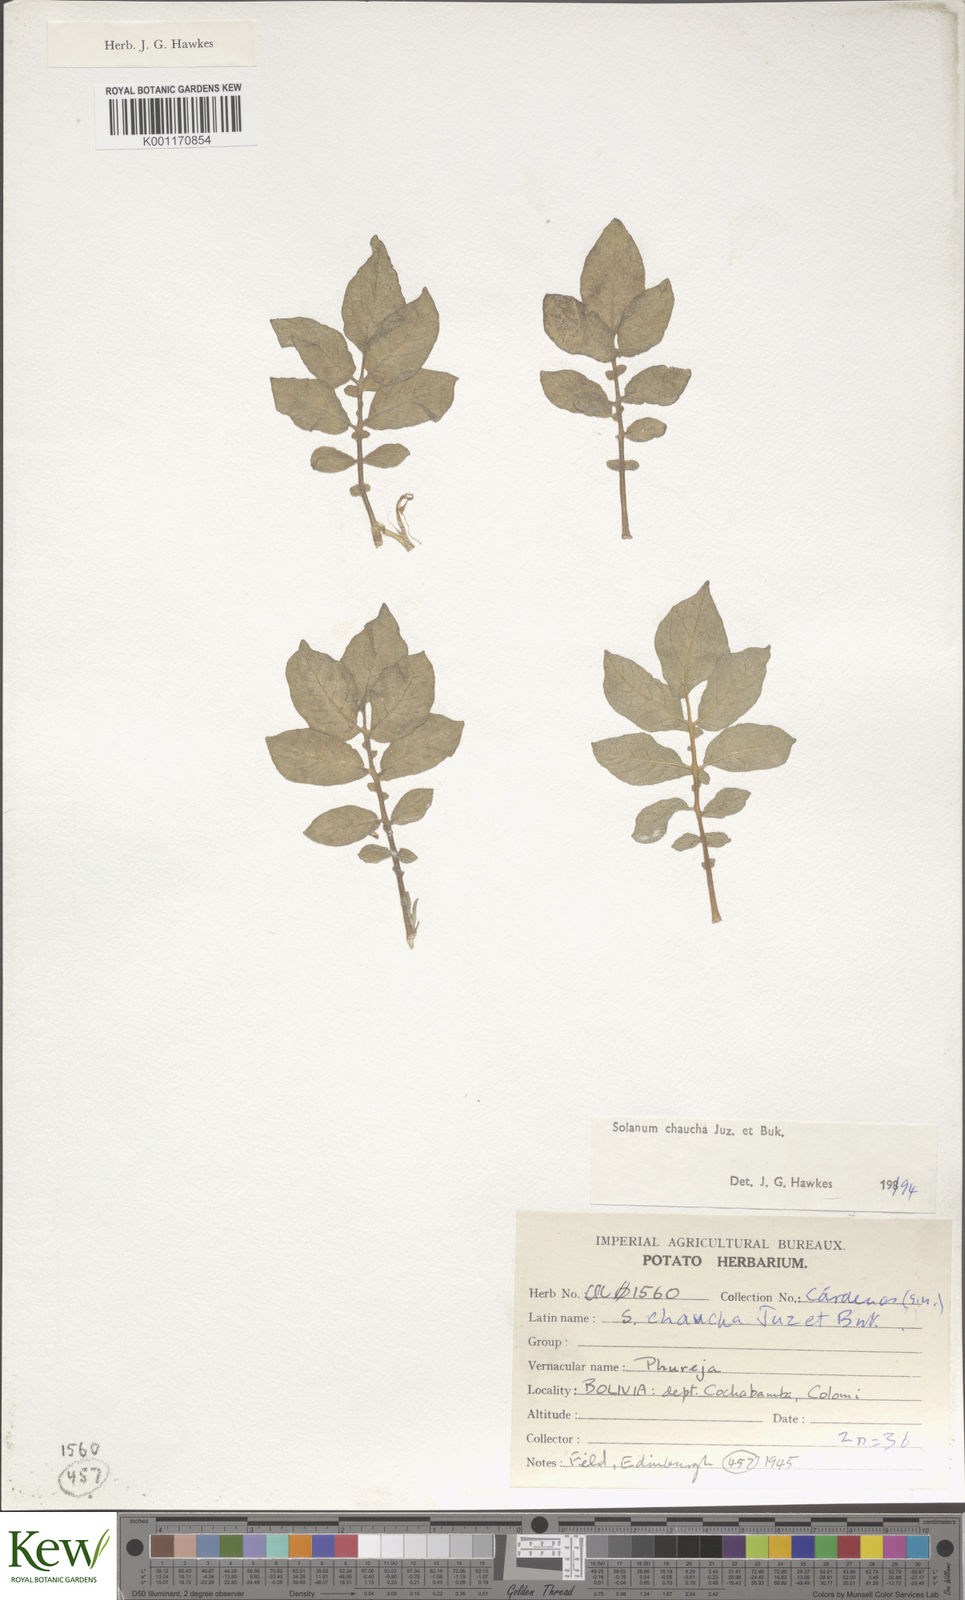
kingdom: Plantae
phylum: Tracheophyta
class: Magnoliopsida
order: Solanales
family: Solanaceae
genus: Solanum
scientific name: Solanum tuberosum
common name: Potato
